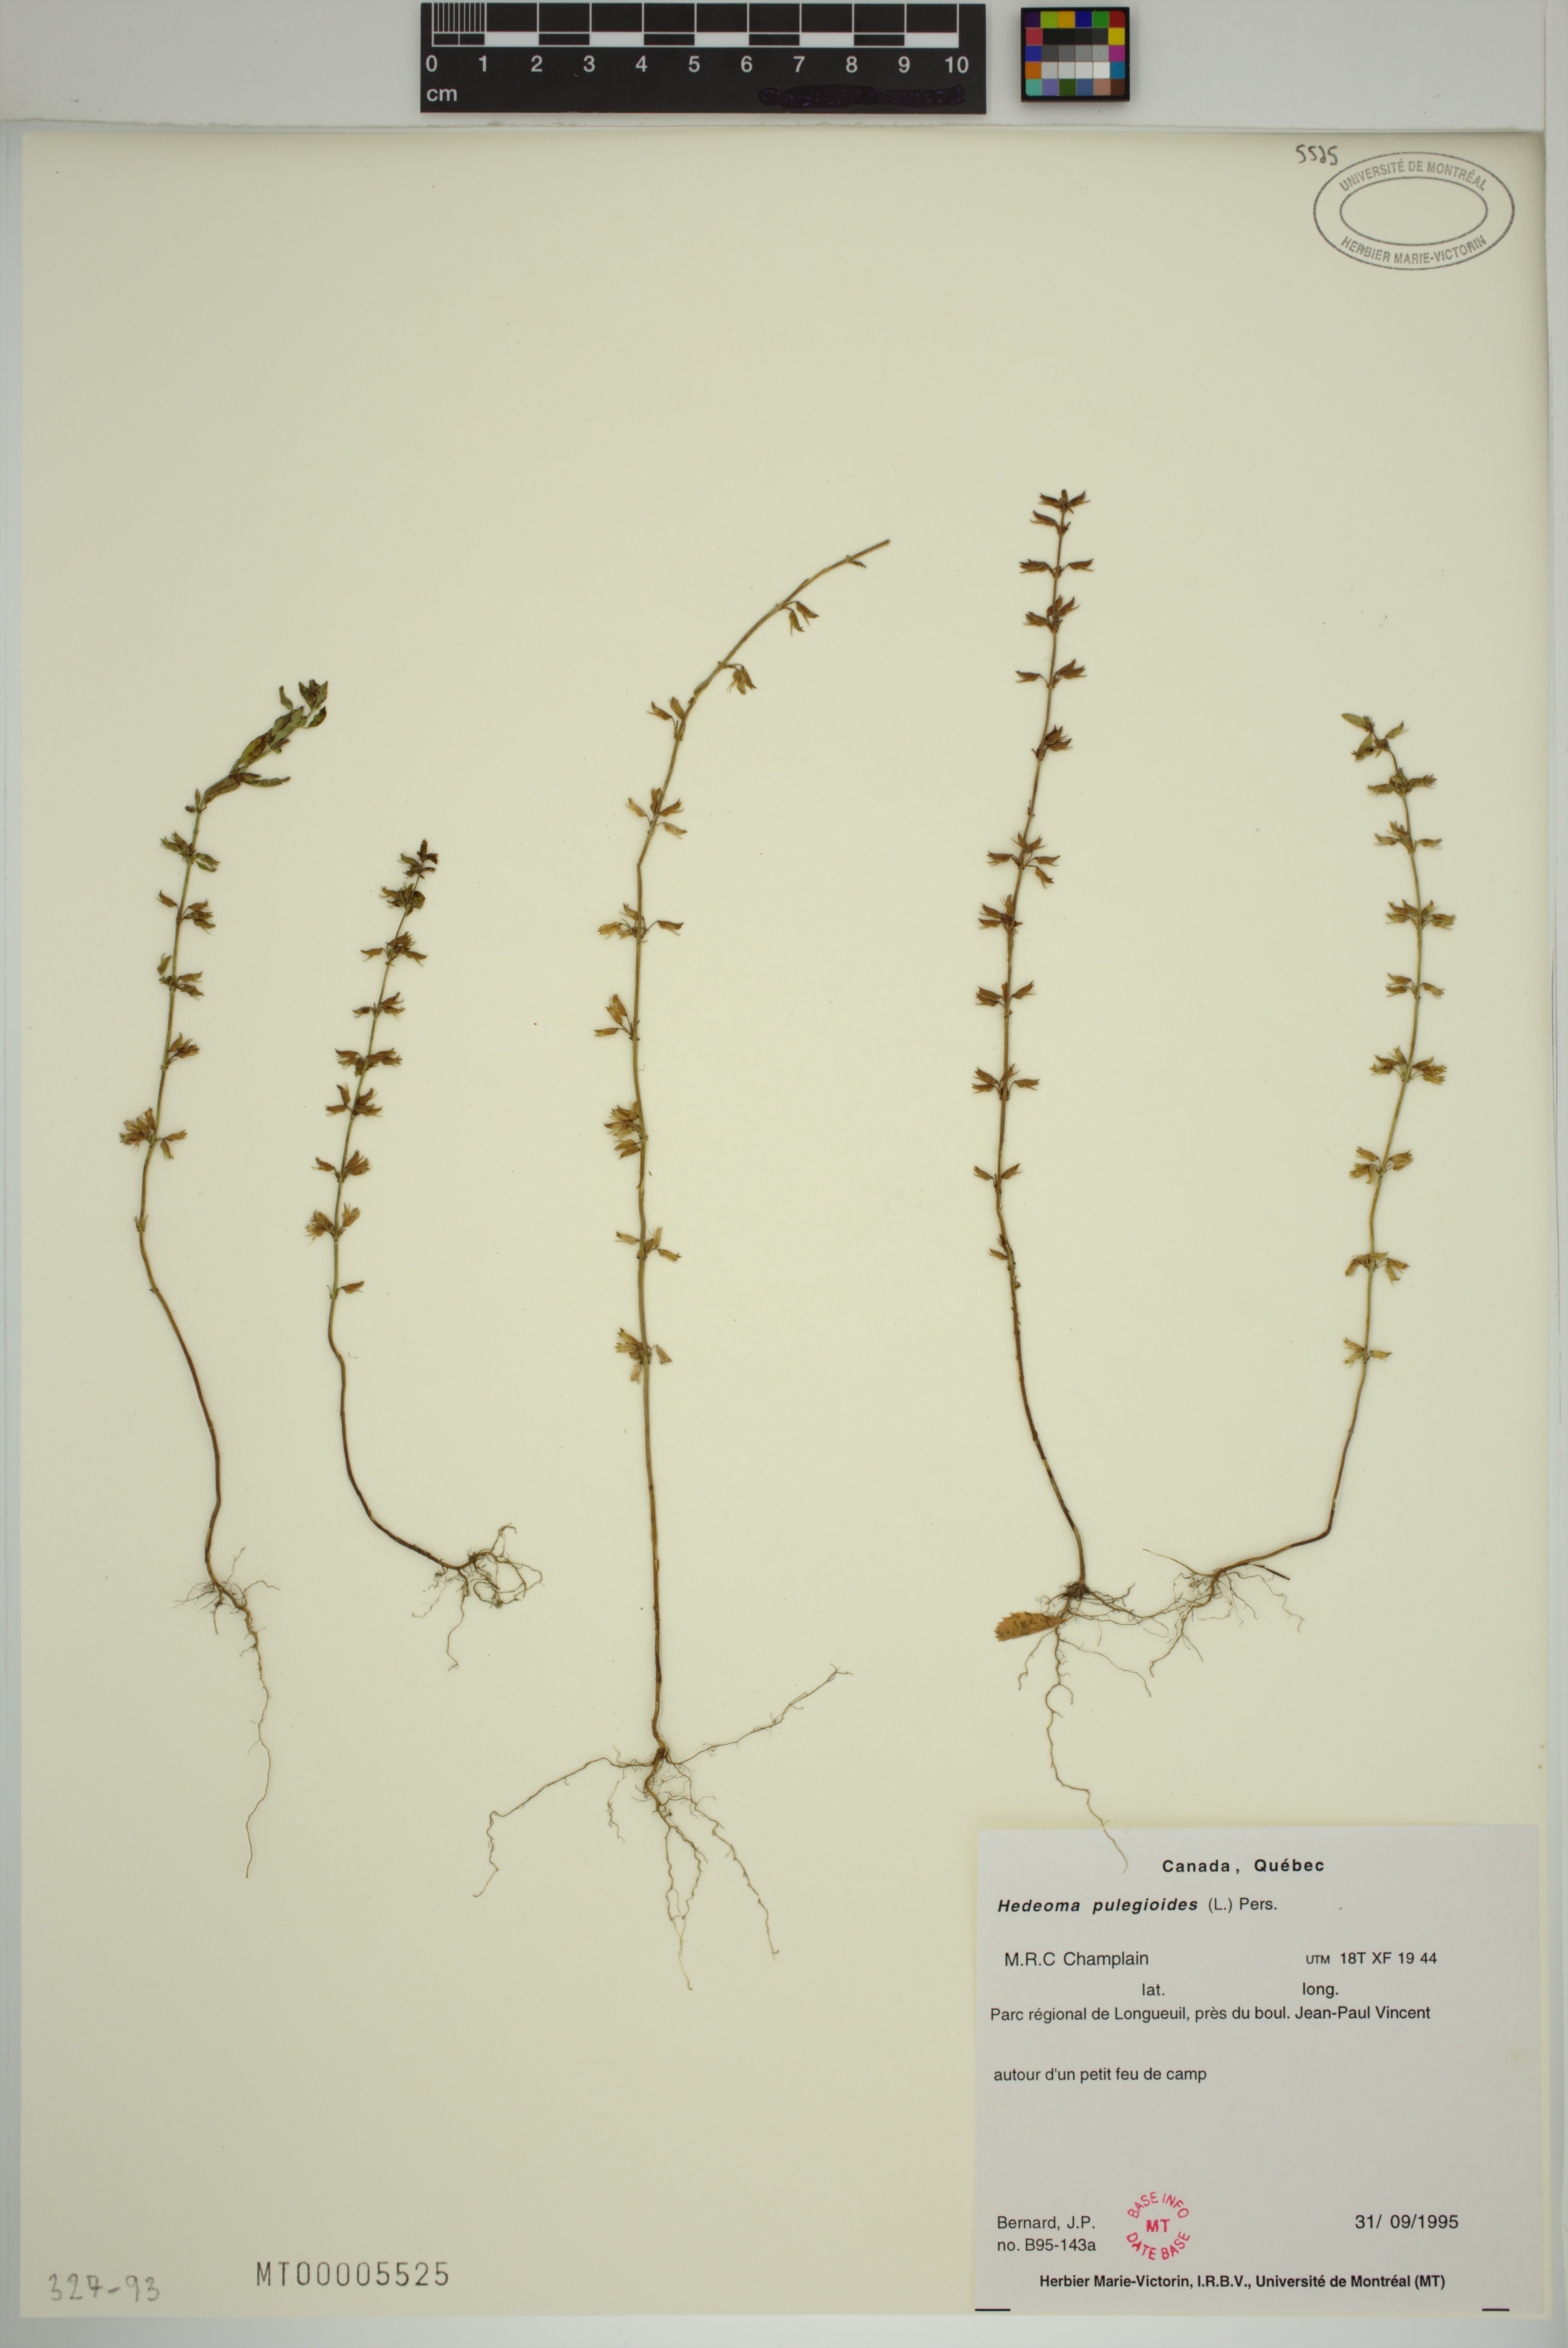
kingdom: Plantae
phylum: Tracheophyta
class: Magnoliopsida
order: Lamiales
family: Lamiaceae
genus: Hedeoma
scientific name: Hedeoma pulegioides
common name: American false pennyroyal
